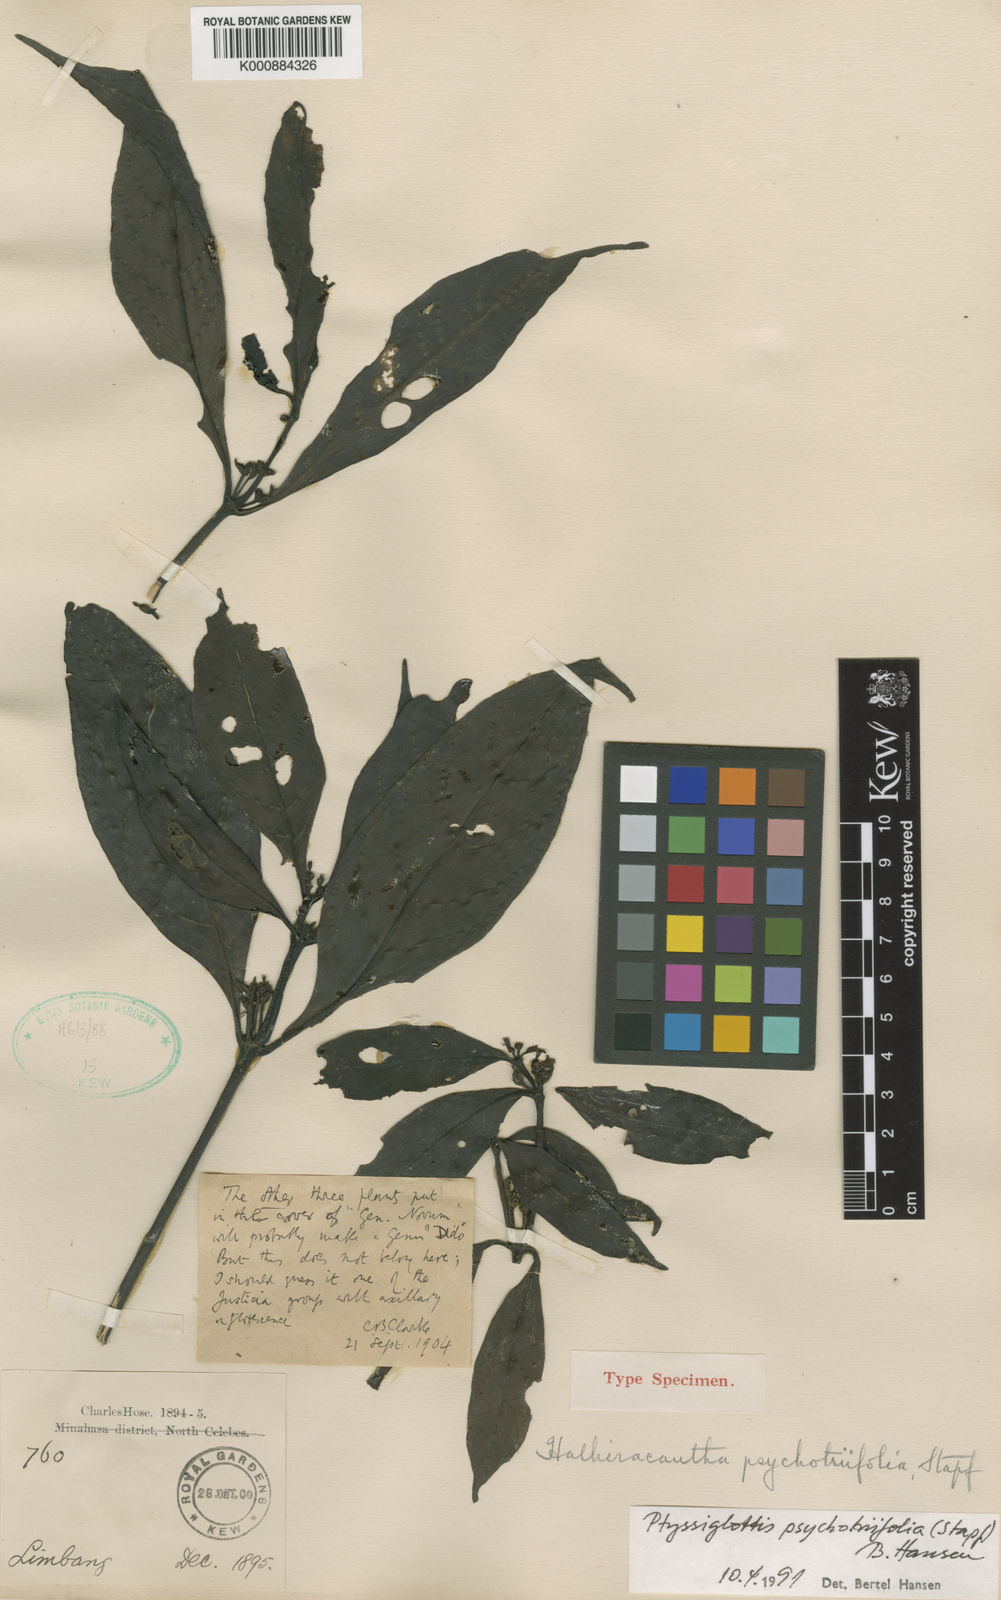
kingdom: Plantae
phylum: Tracheophyta
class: Magnoliopsida
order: Lamiales
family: Acanthaceae
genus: Ptyssiglottis
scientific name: Ptyssiglottis psychotriifolia
